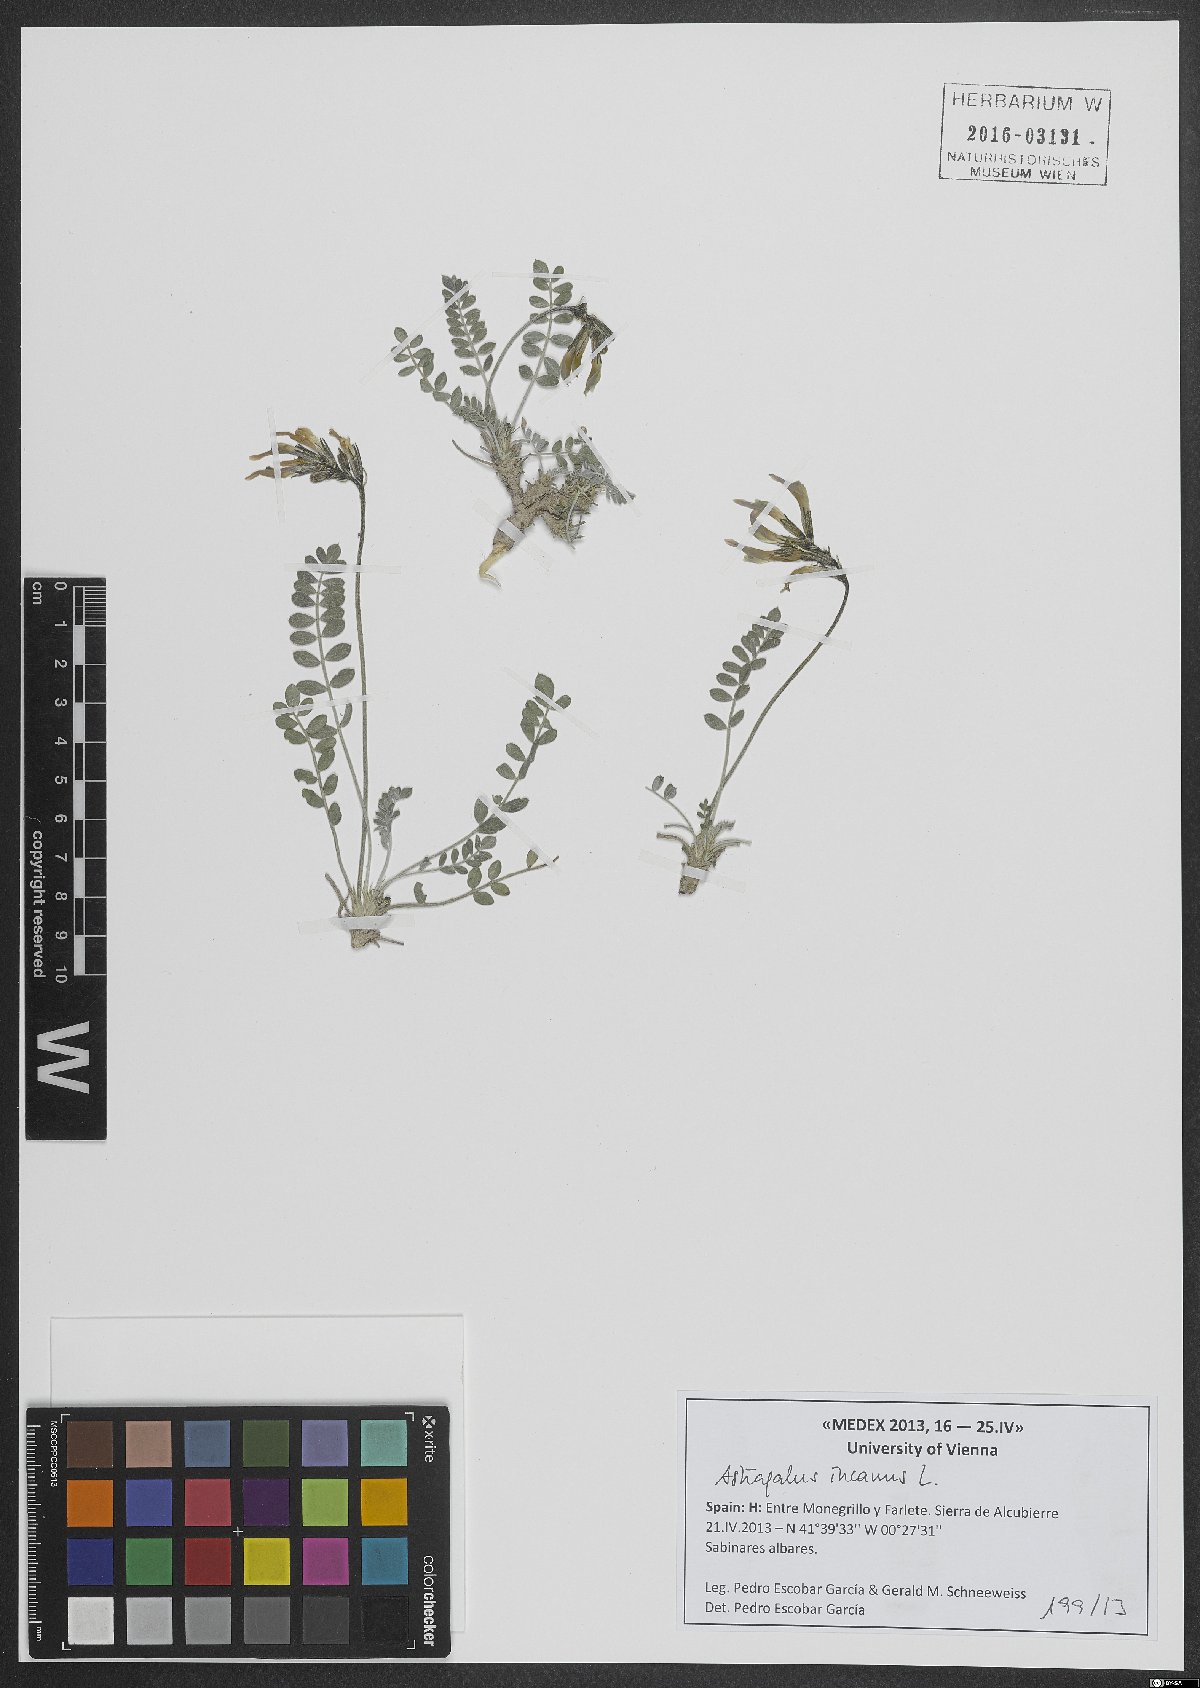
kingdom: Plantae
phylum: Tracheophyta
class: Magnoliopsida
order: Fabales
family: Fabaceae
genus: Astragalus
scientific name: Astragalus incanus
